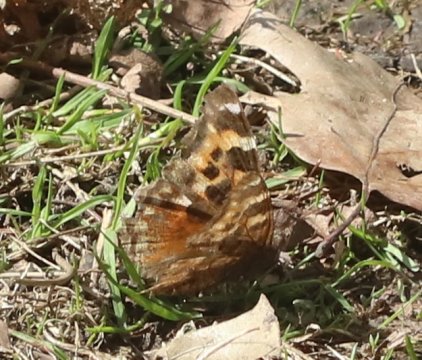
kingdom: Animalia
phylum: Arthropoda
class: Insecta
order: Lepidoptera
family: Nymphalidae
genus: Polygonia
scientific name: Polygonia vaualbum
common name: Compton Tortoiseshell
